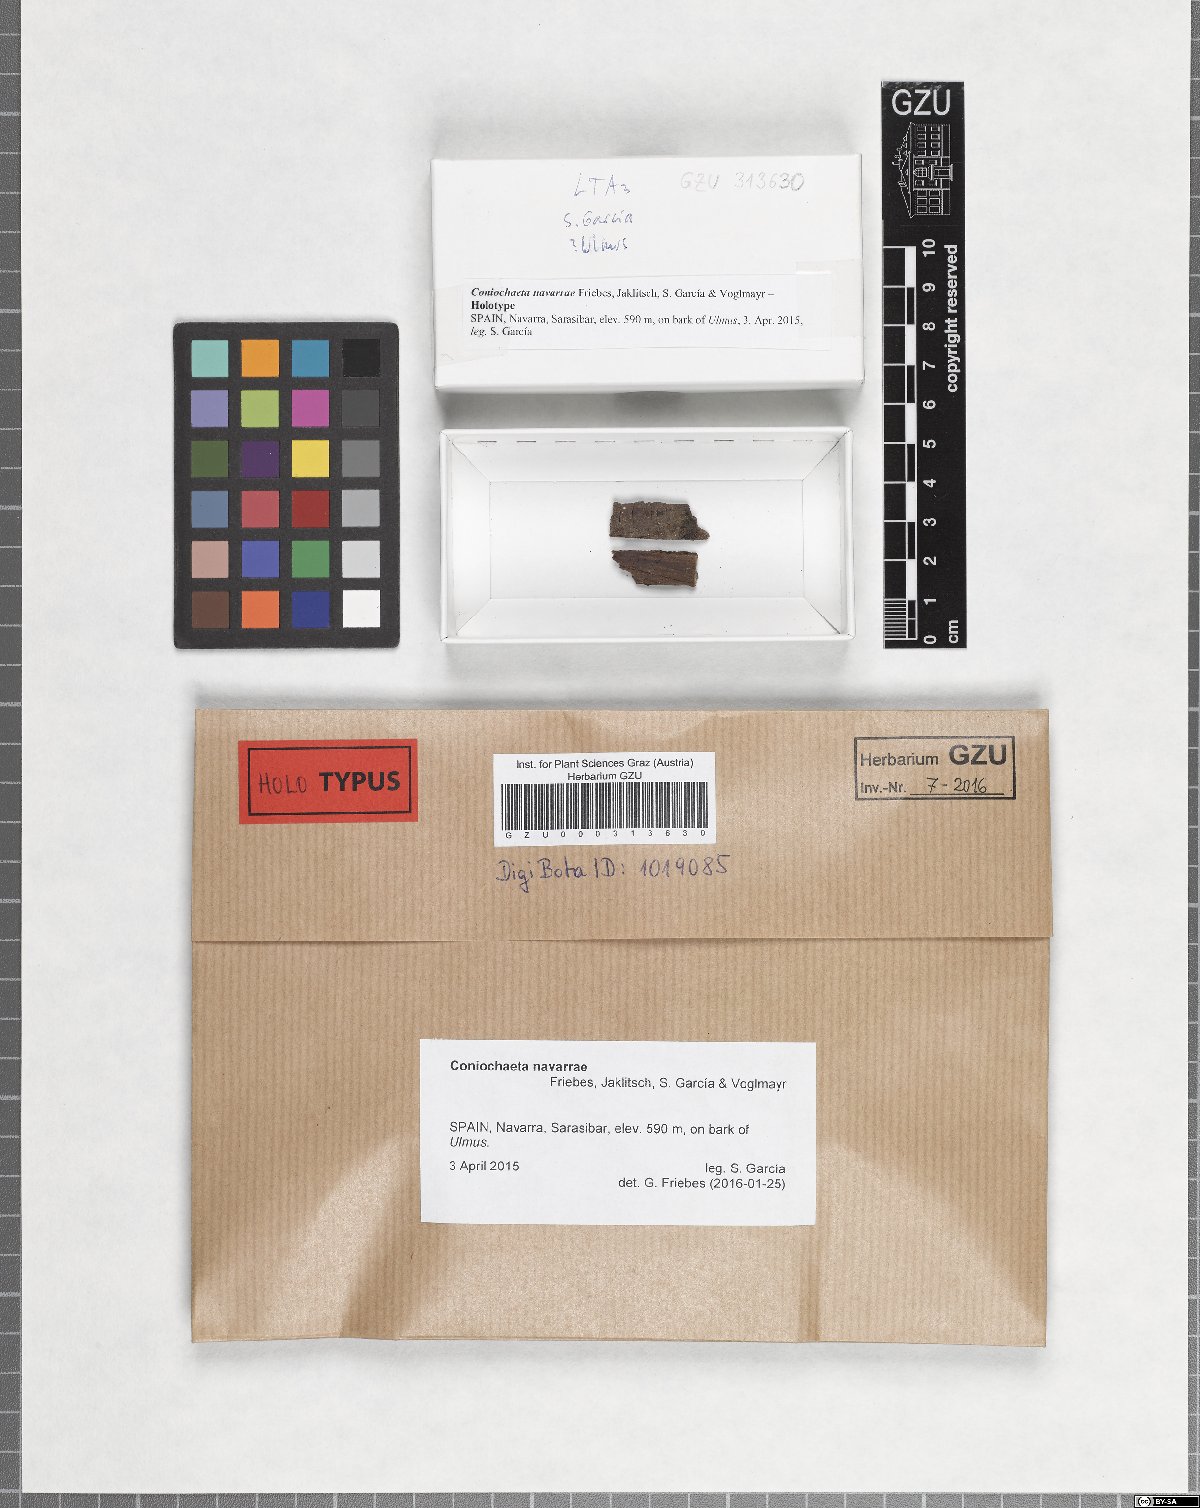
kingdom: Fungi
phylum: Ascomycota
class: Sordariomycetes
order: Coniochaetales
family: Coniochaetaceae
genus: Coniochaeta
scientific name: Coniochaeta navarrae
